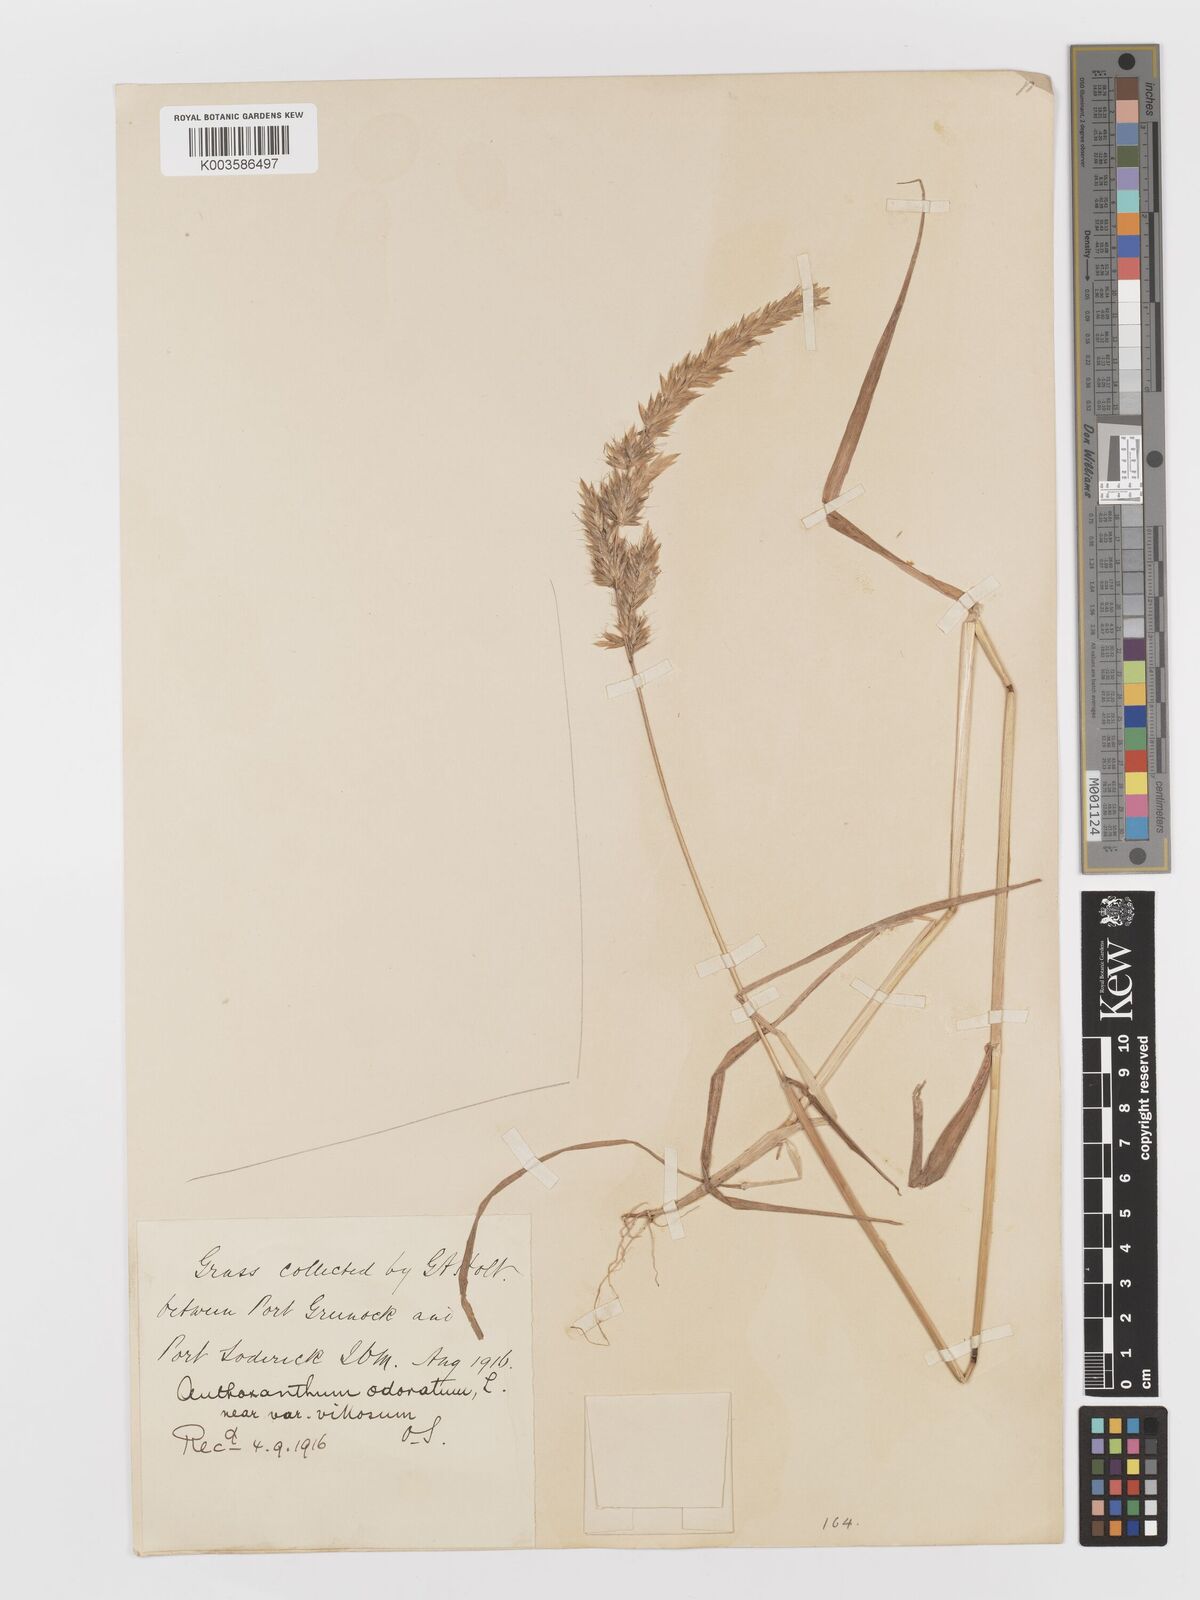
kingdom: Plantae
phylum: Tracheophyta
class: Liliopsida
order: Poales
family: Poaceae
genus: Anthoxanthum
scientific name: Anthoxanthum odoratum
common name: Sweet vernalgrass
